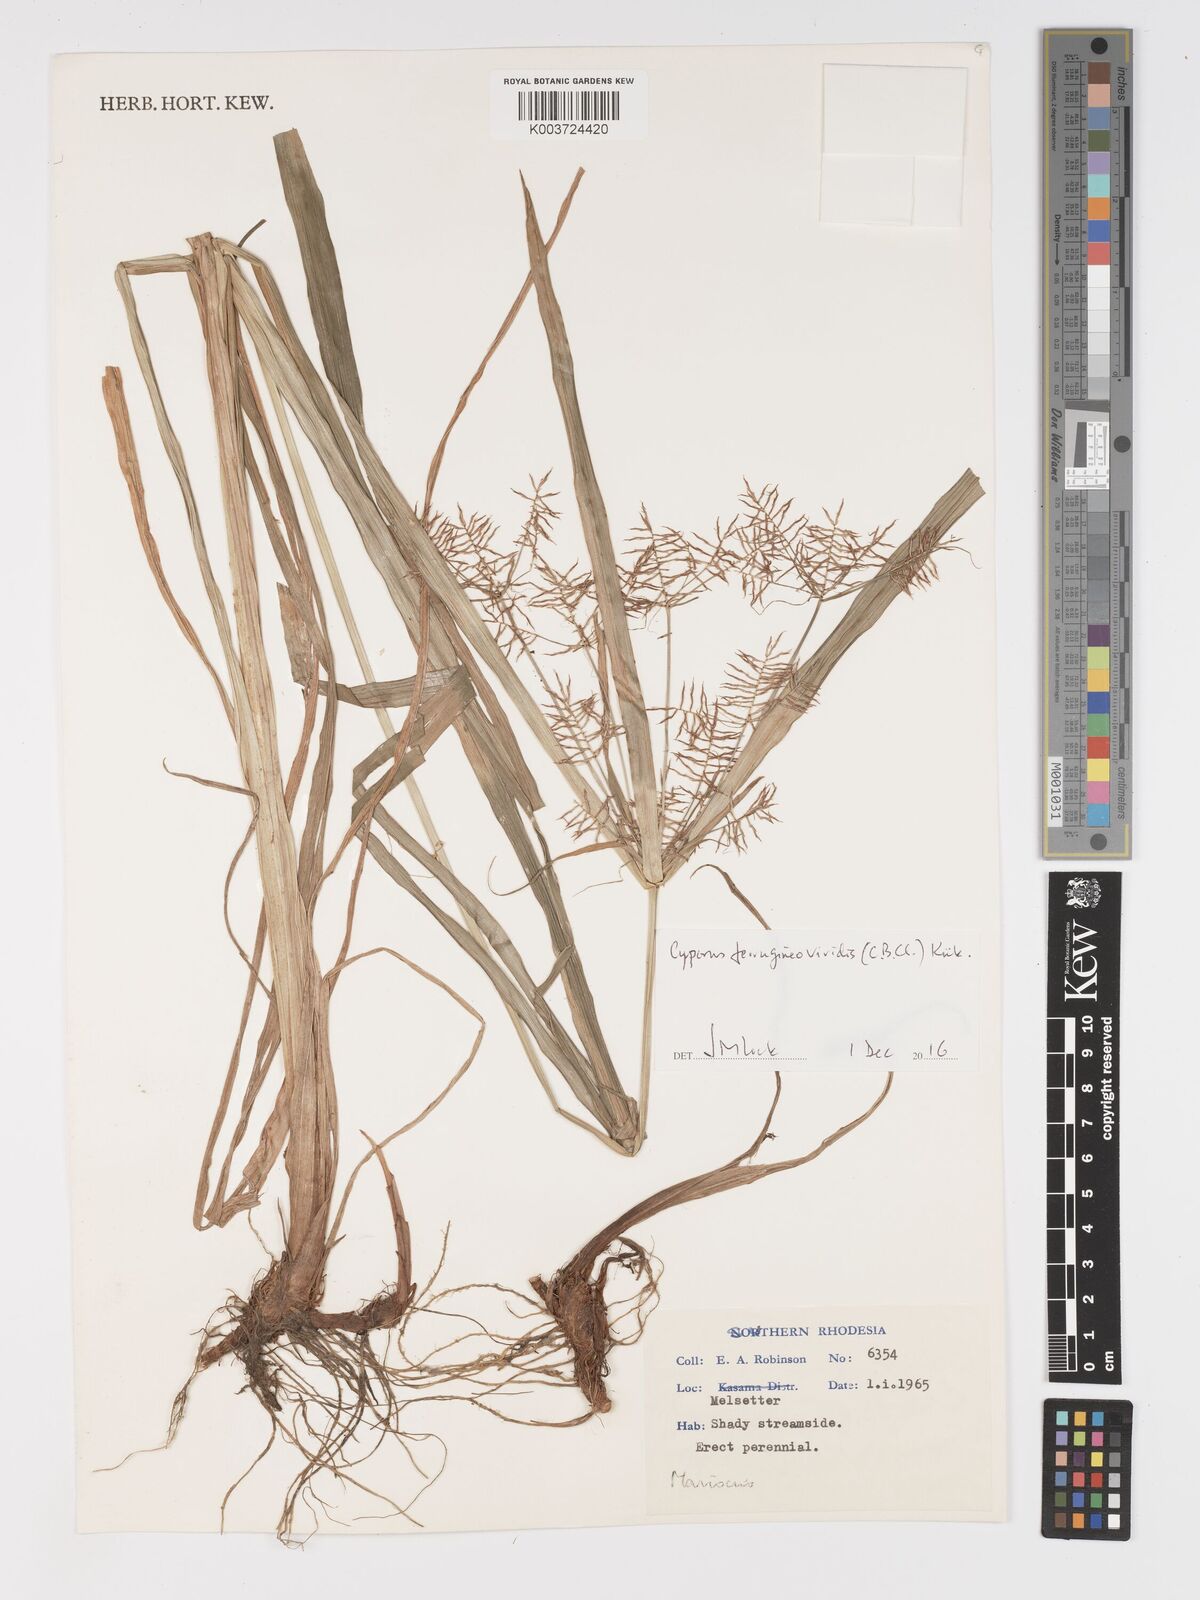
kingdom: Plantae
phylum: Tracheophyta
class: Liliopsida
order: Poales
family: Cyperaceae
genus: Cyperus
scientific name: Cyperus ferrugineoviridis
